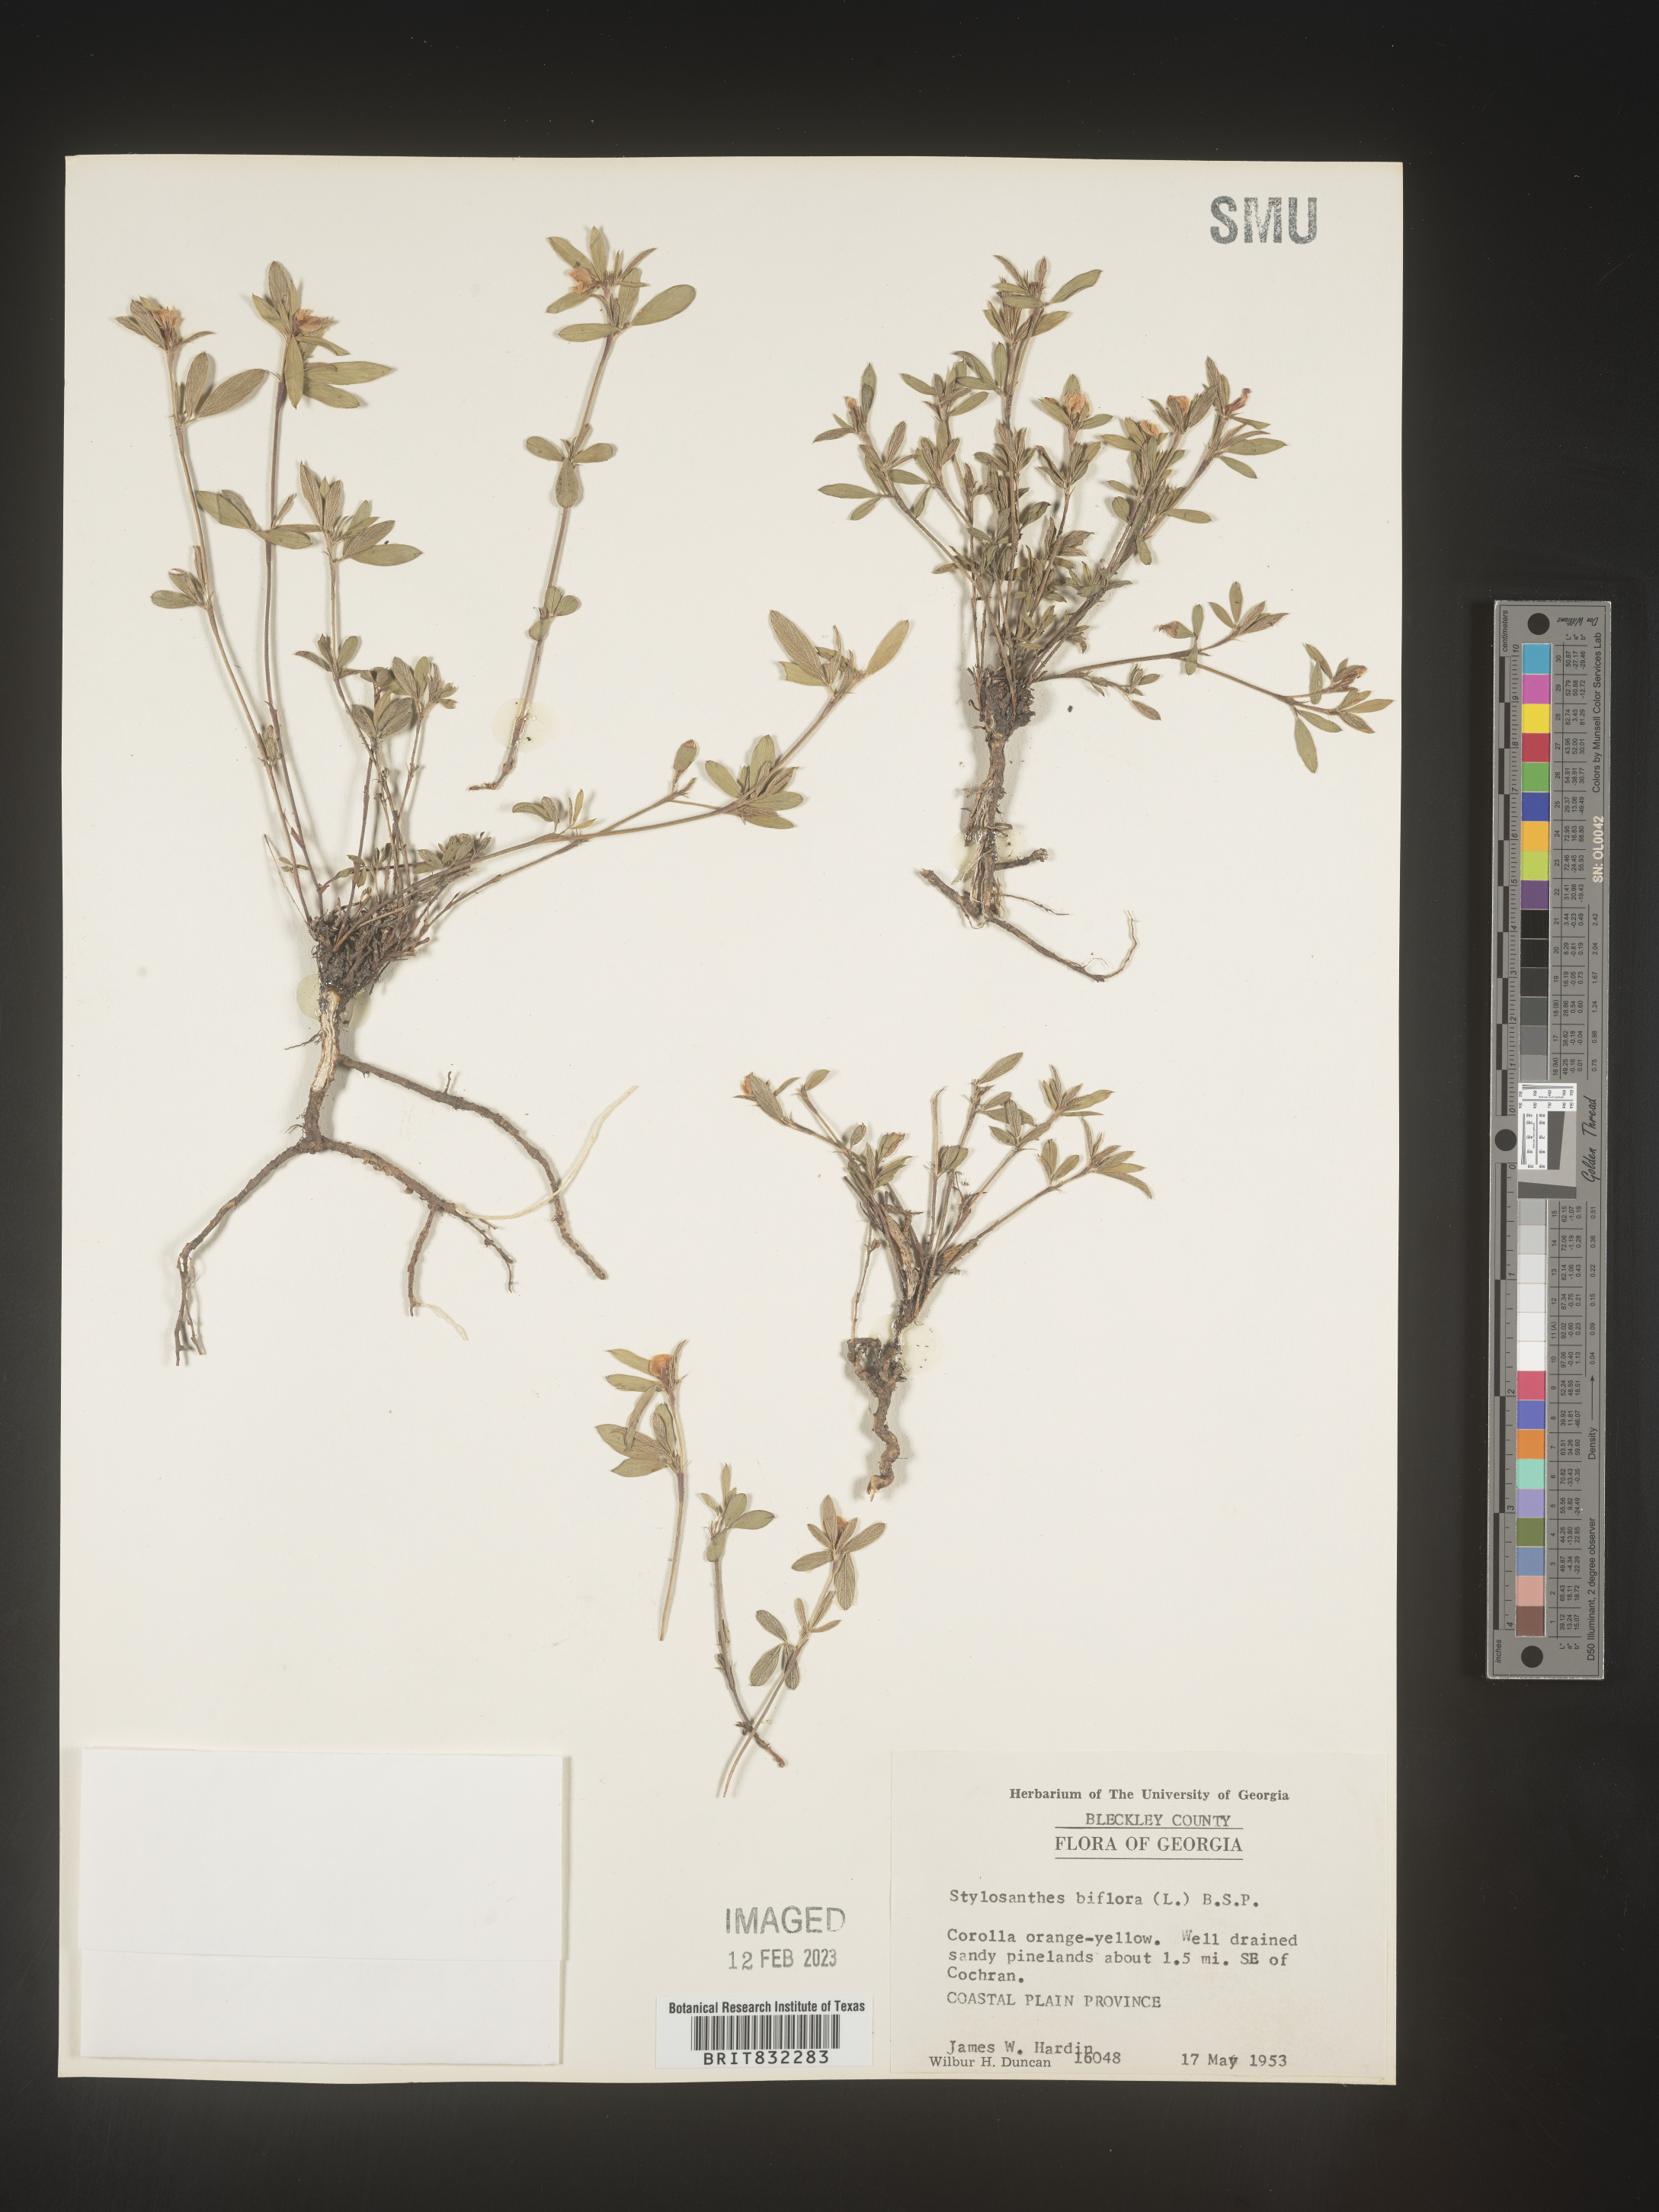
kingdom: Plantae
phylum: Tracheophyta
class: Magnoliopsida
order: Fabales
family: Fabaceae
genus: Stylosanthes
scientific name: Stylosanthes biflora
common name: Two-flower pencil-flower
